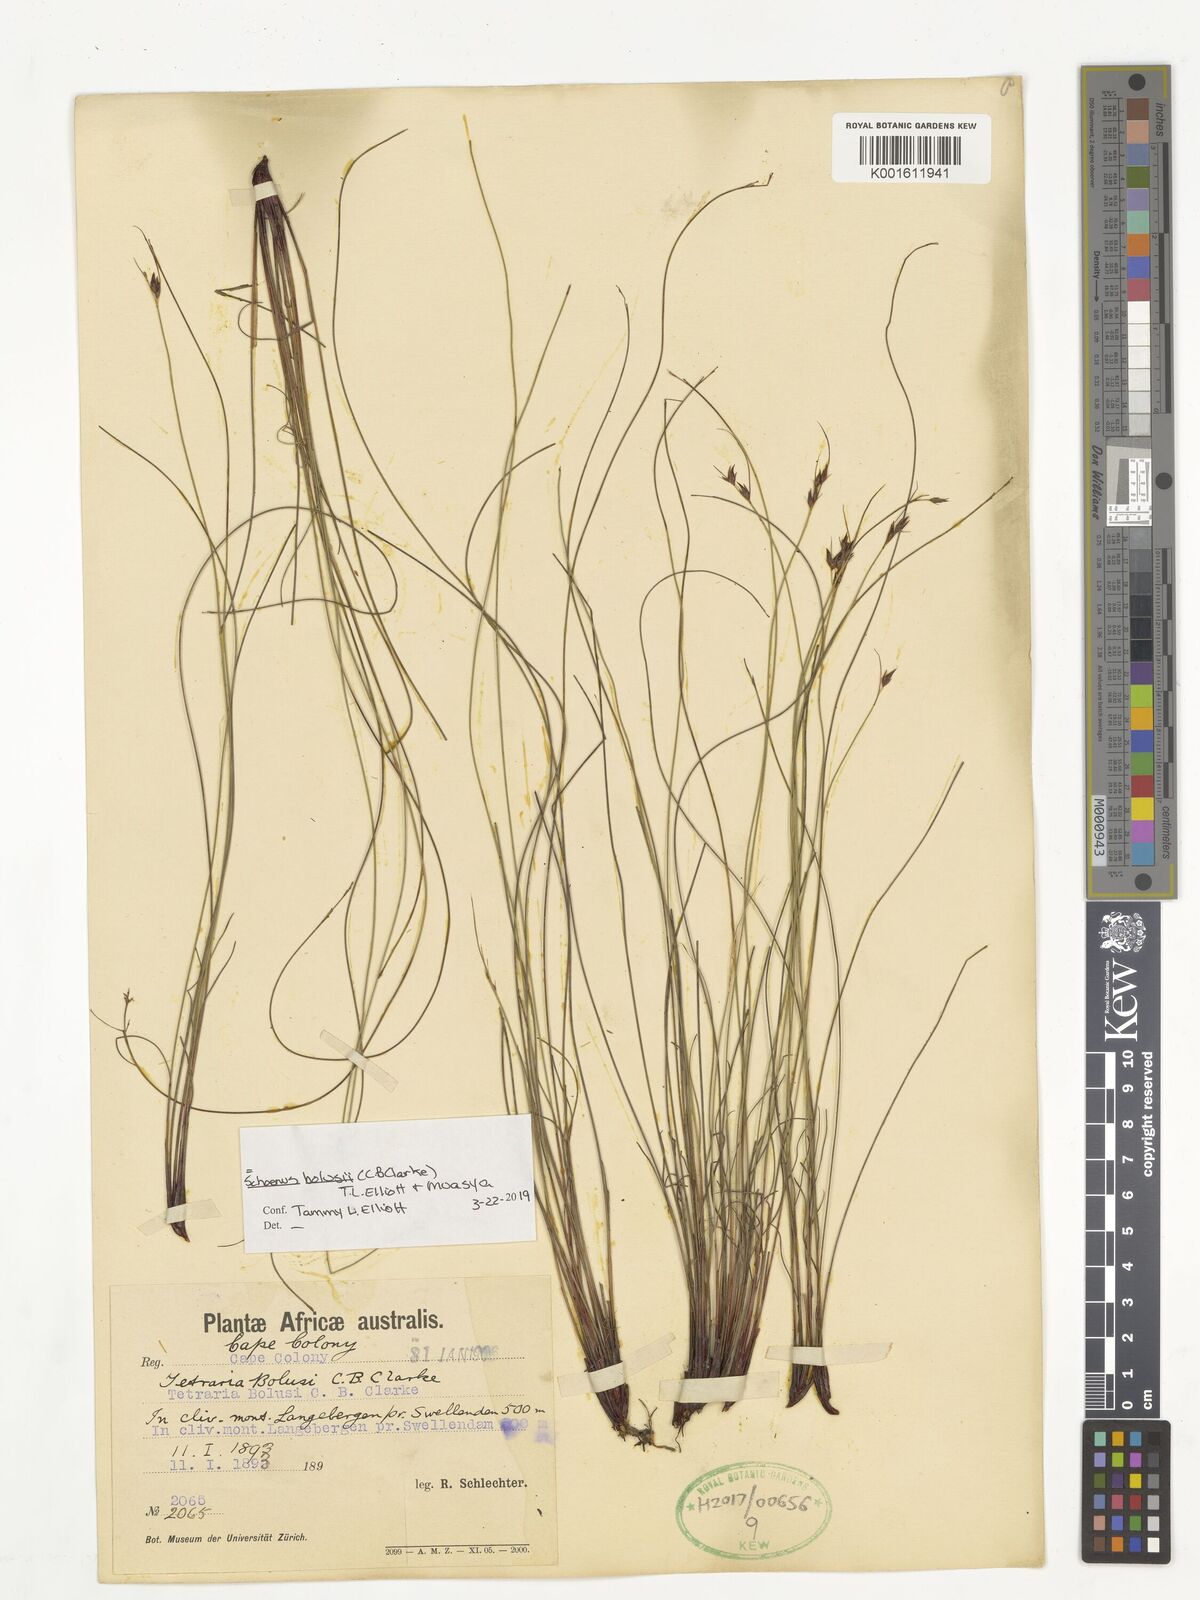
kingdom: Plantae
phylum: Tracheophyta
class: Liliopsida
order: Poales
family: Cyperaceae
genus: Schoenus
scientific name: Schoenus bolusii
